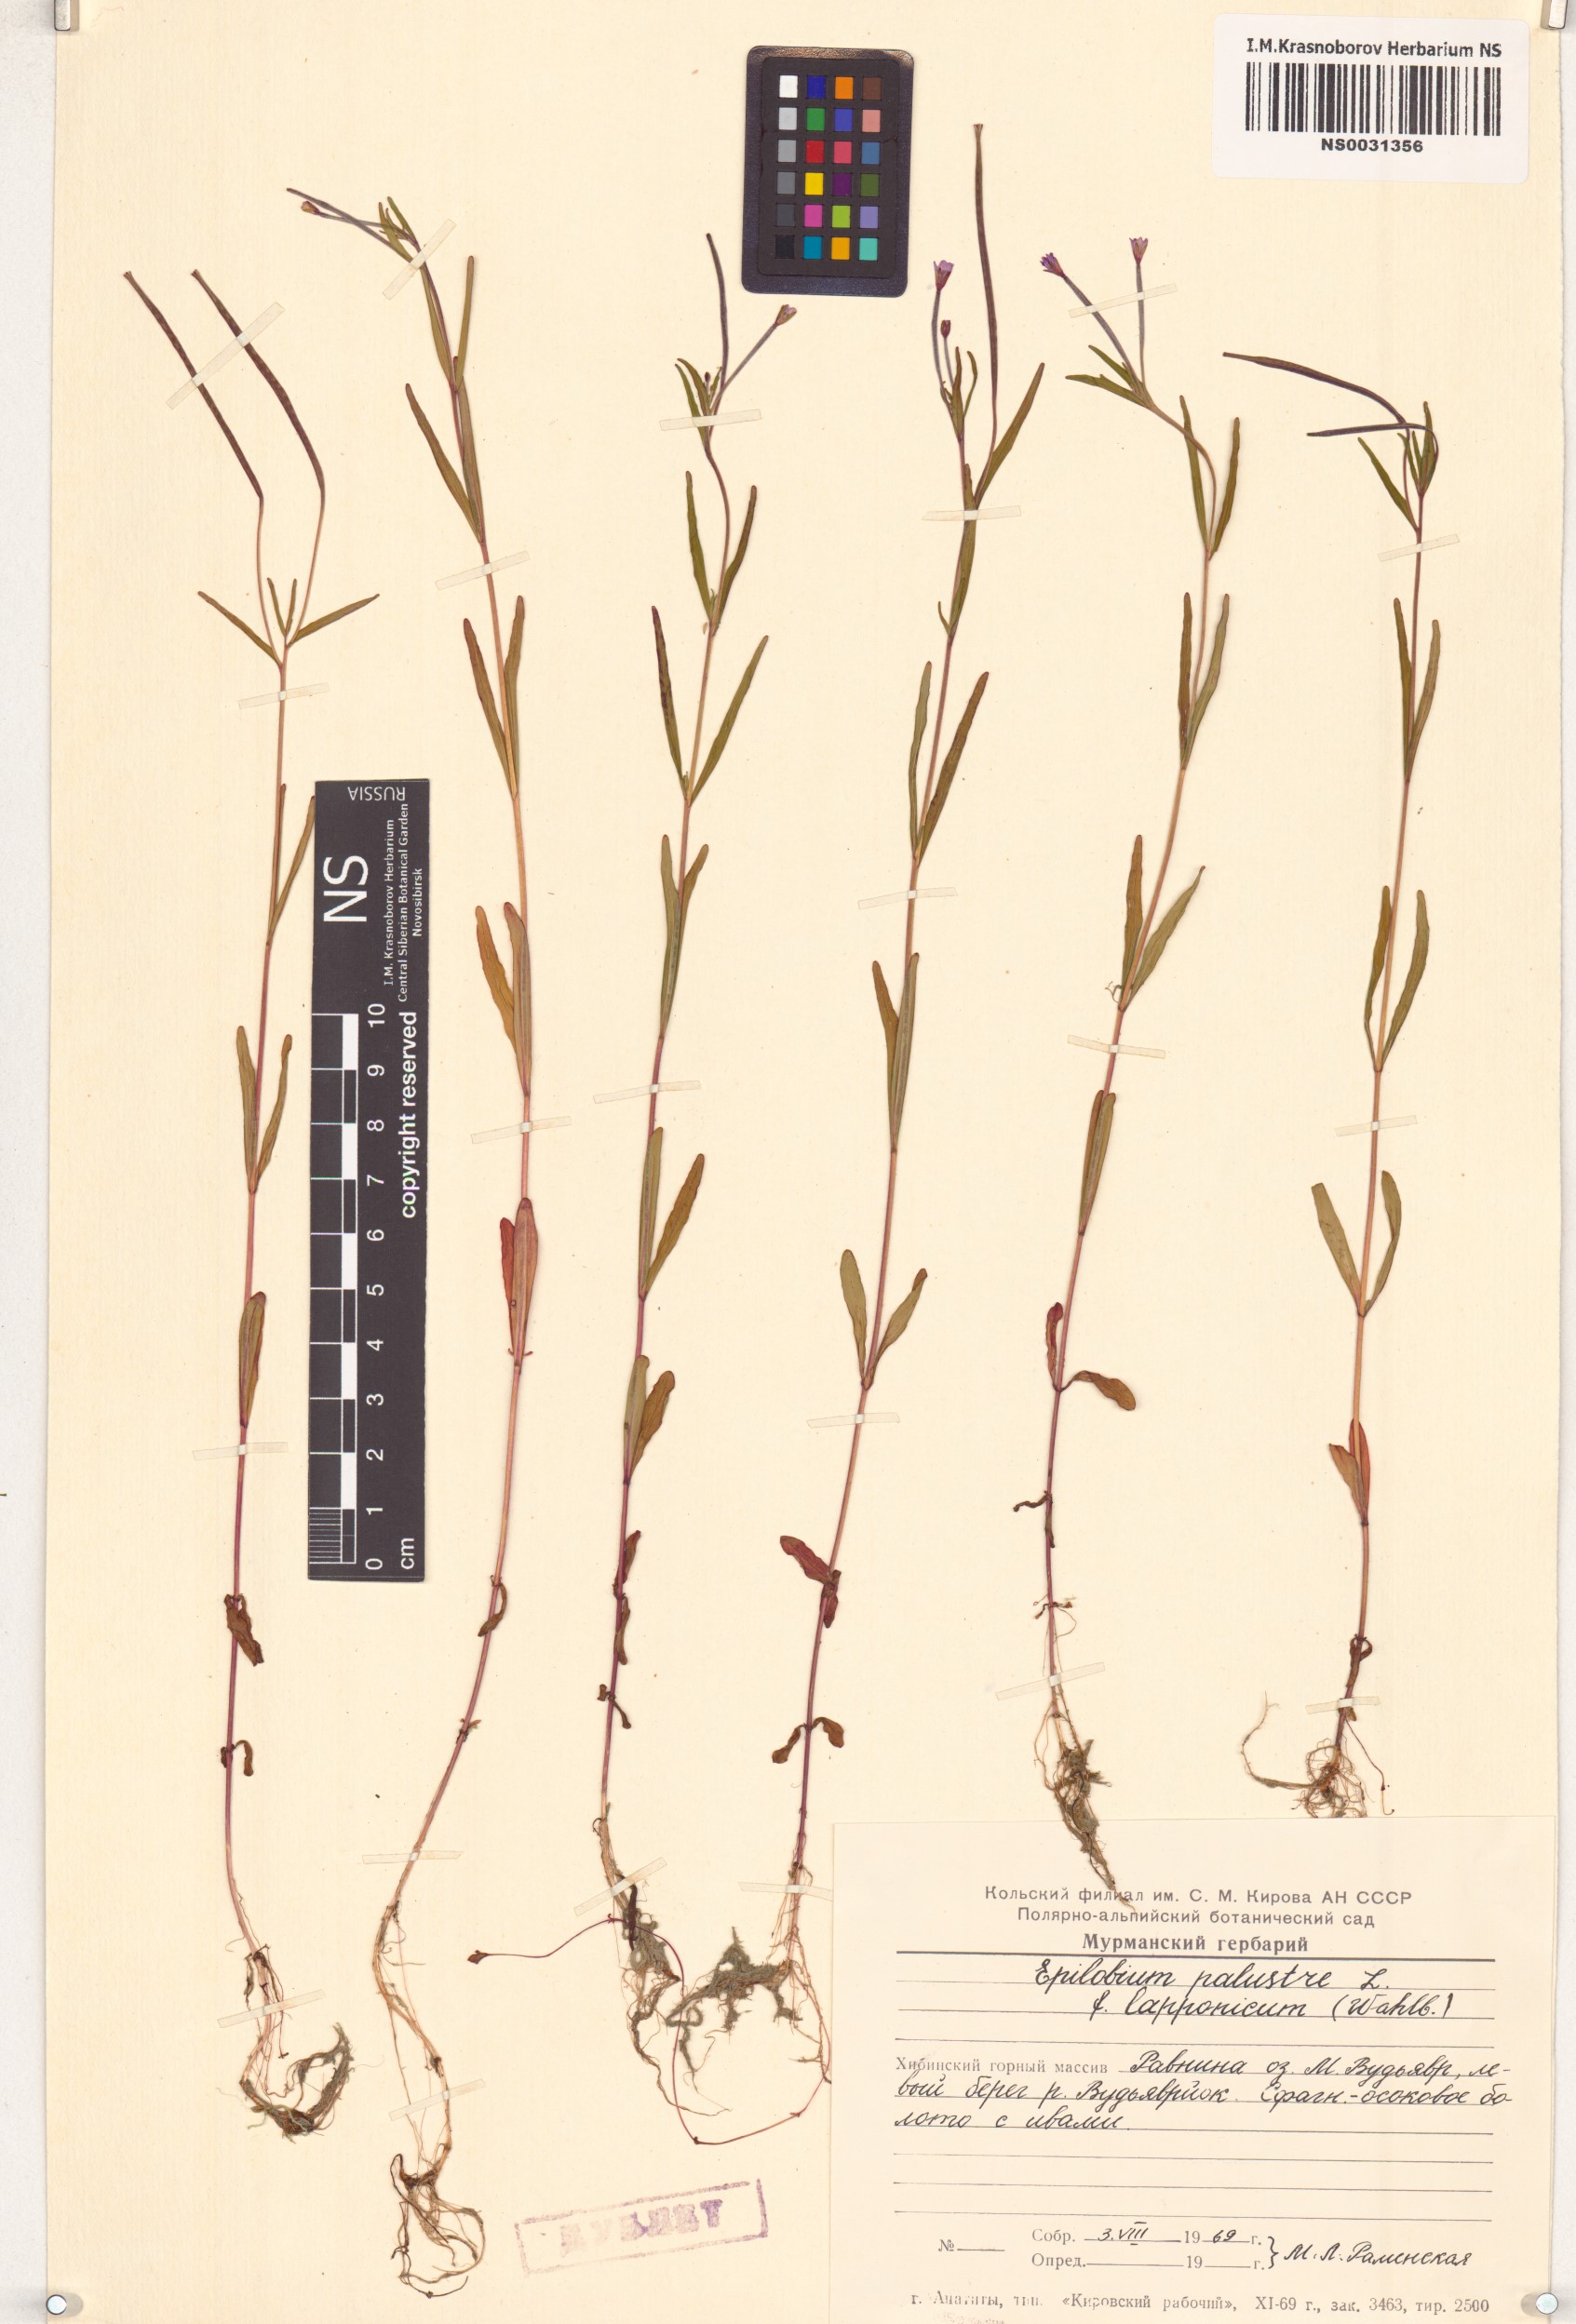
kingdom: Plantae
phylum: Tracheophyta
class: Magnoliopsida
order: Myrtales
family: Onagraceae
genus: Epilobium
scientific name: Epilobium palustre
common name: Marsh willowherb
